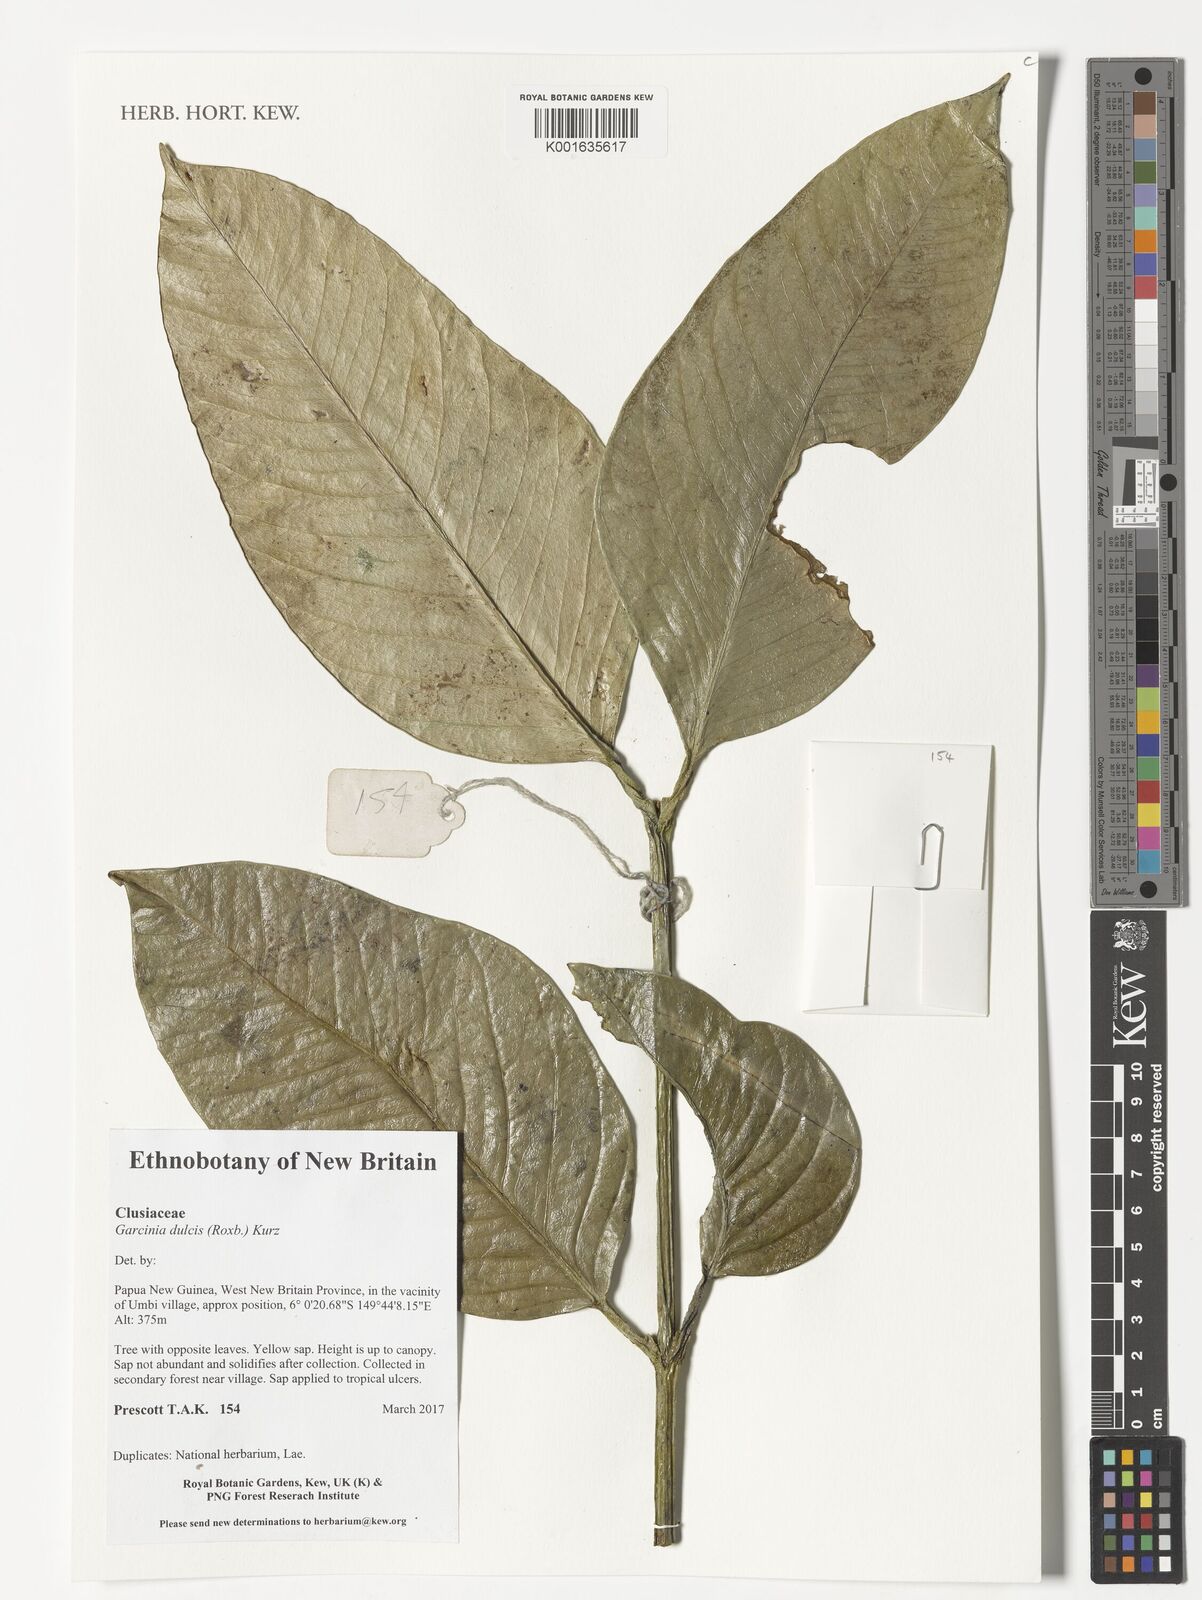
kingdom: Plantae
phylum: Tracheophyta
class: Magnoliopsida
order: Malpighiales
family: Clusiaceae
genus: Garcinia
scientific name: Garcinia dulcis
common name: Eggtree
